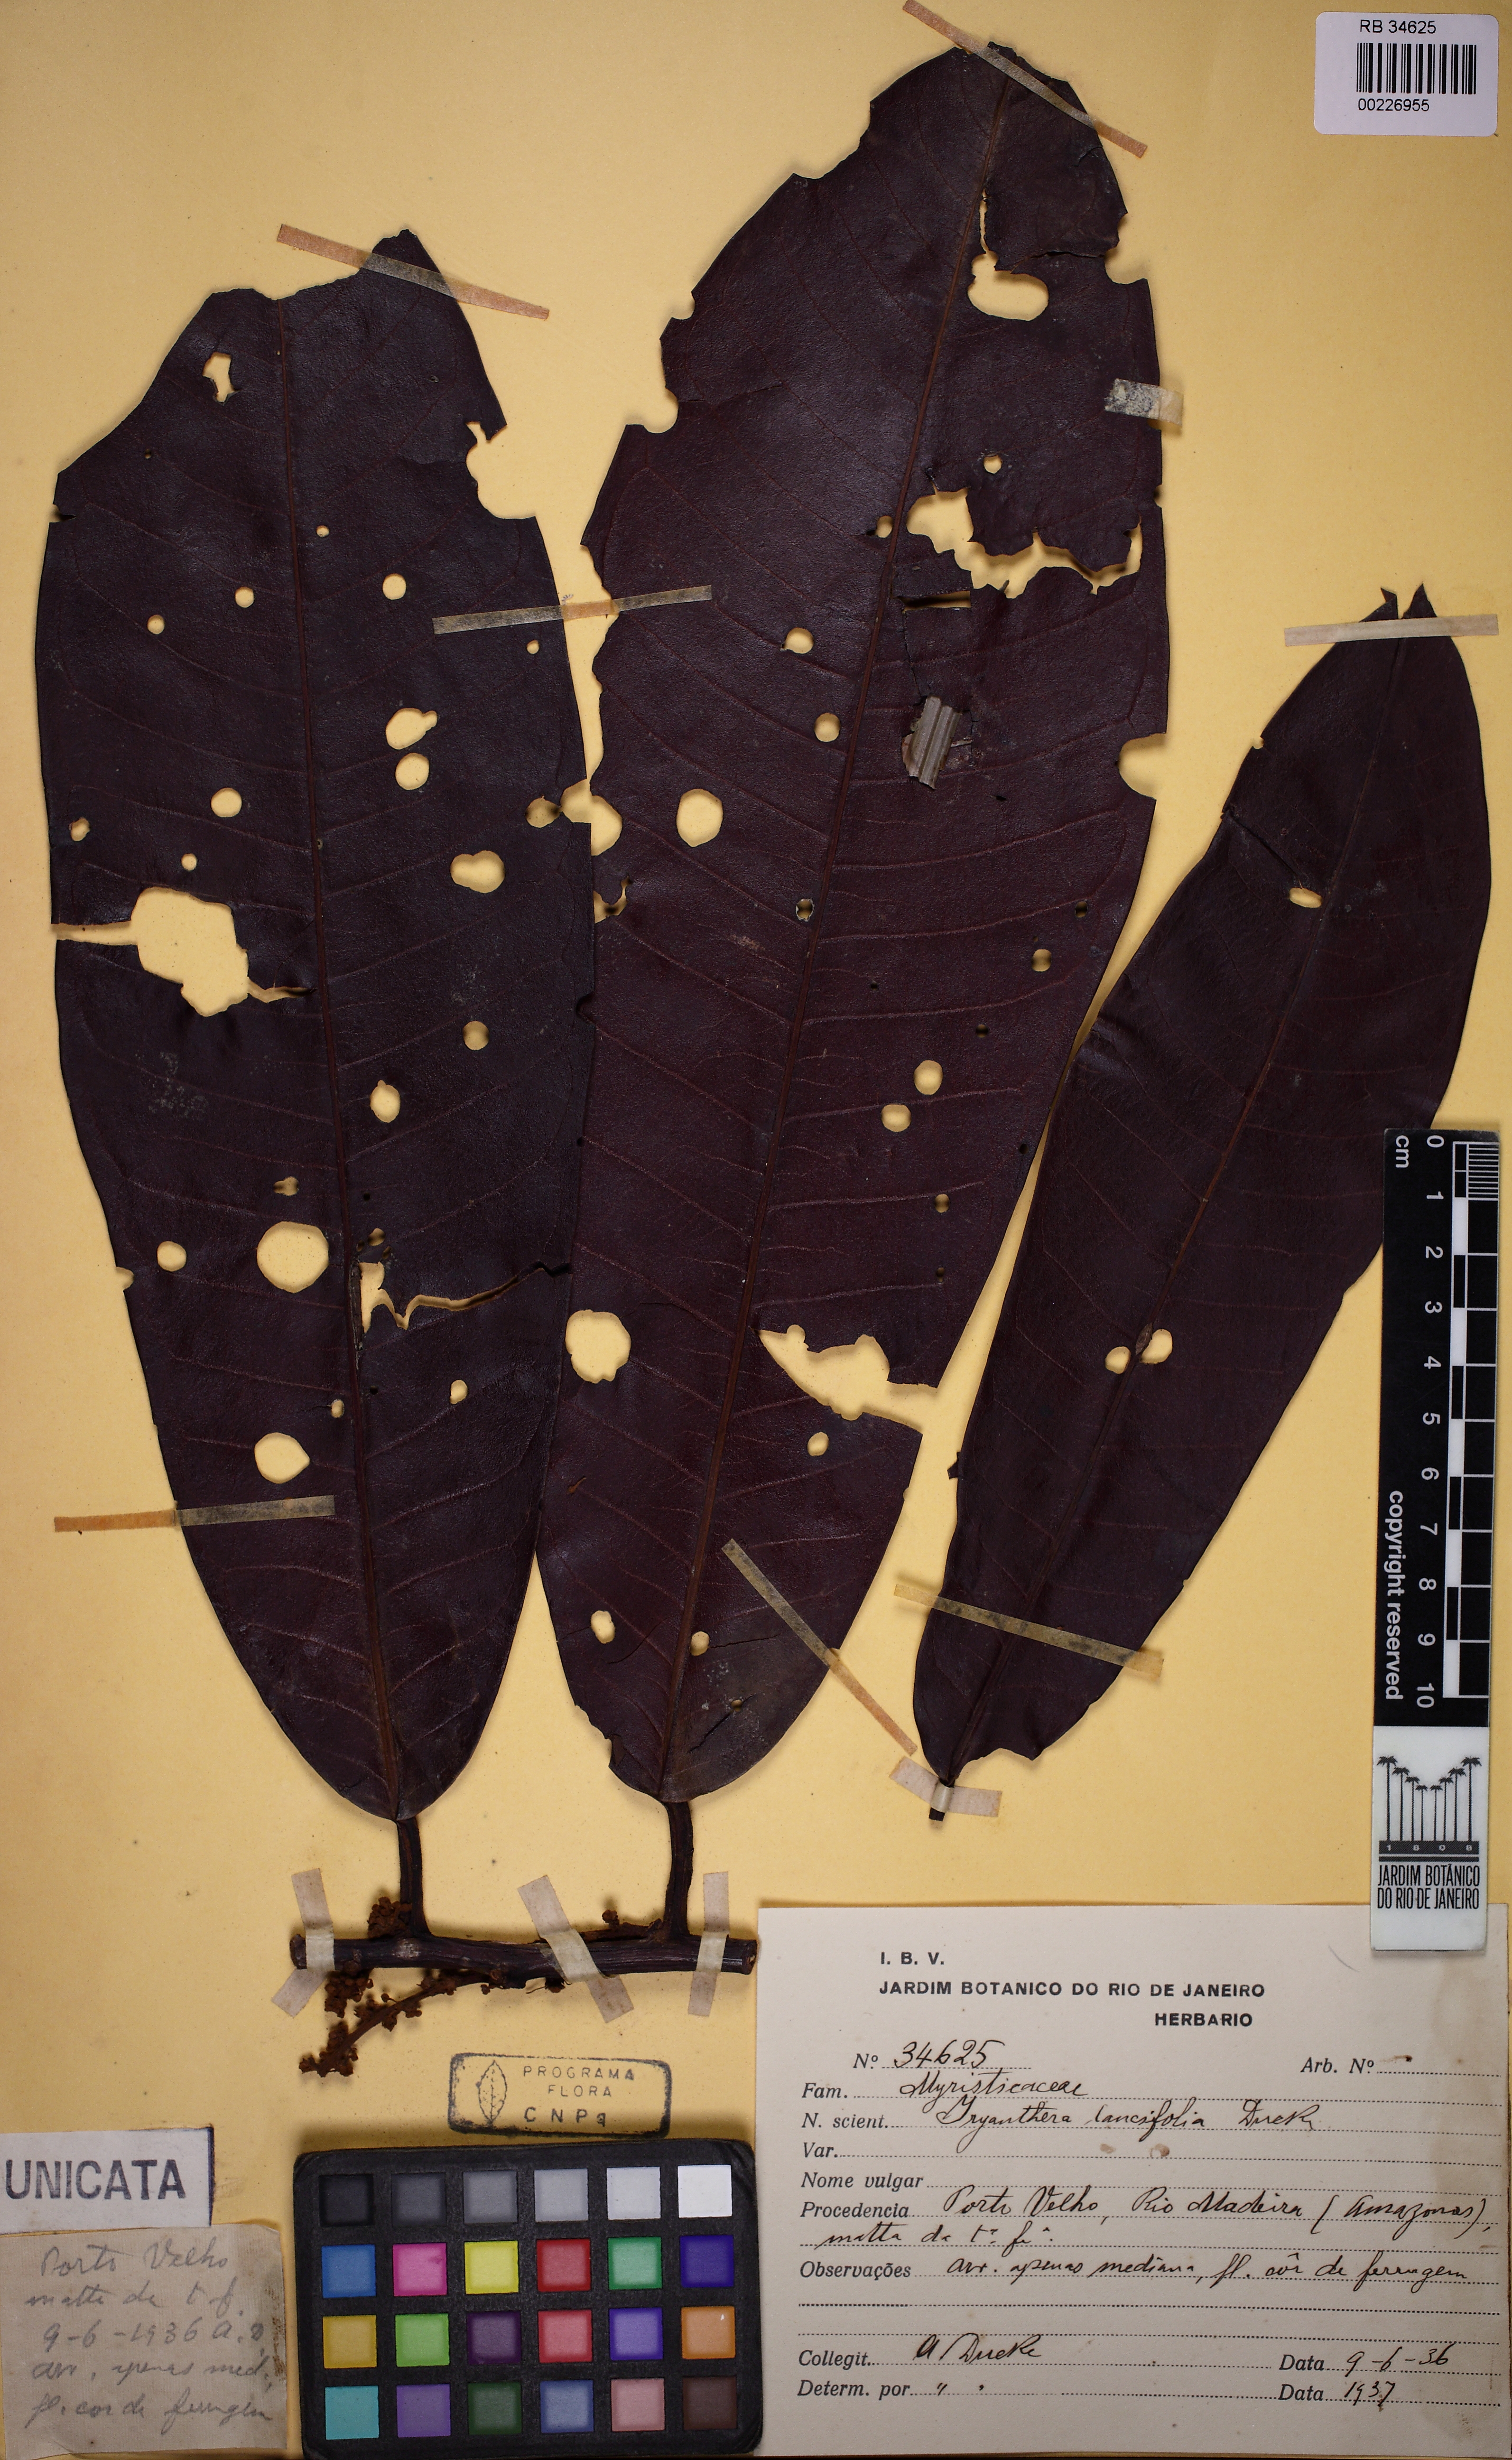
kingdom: Plantae
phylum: Tracheophyta
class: Magnoliopsida
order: Magnoliales
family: Myristicaceae
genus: Iryanthera
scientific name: Iryanthera lancifolia
